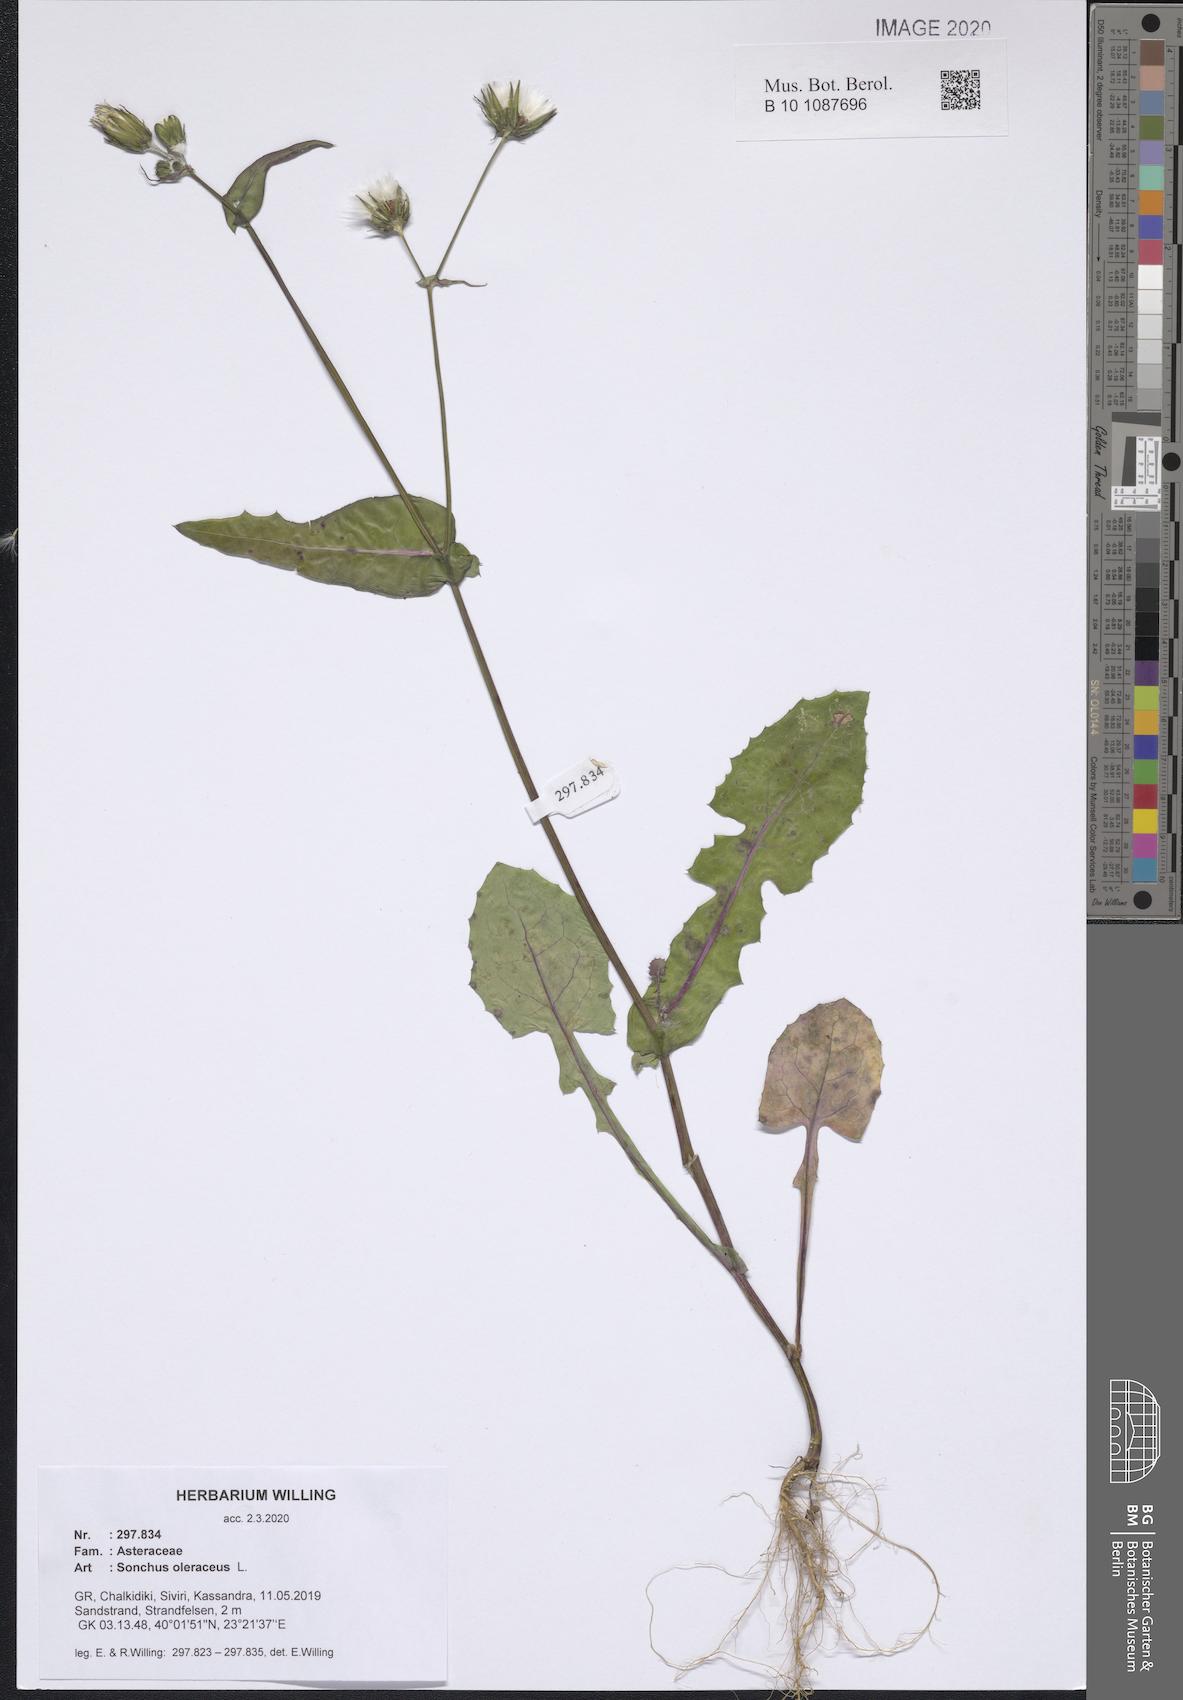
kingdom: Plantae
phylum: Tracheophyta
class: Magnoliopsida
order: Asterales
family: Asteraceae
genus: Sonchus
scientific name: Sonchus oleraceus
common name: Common sowthistle
